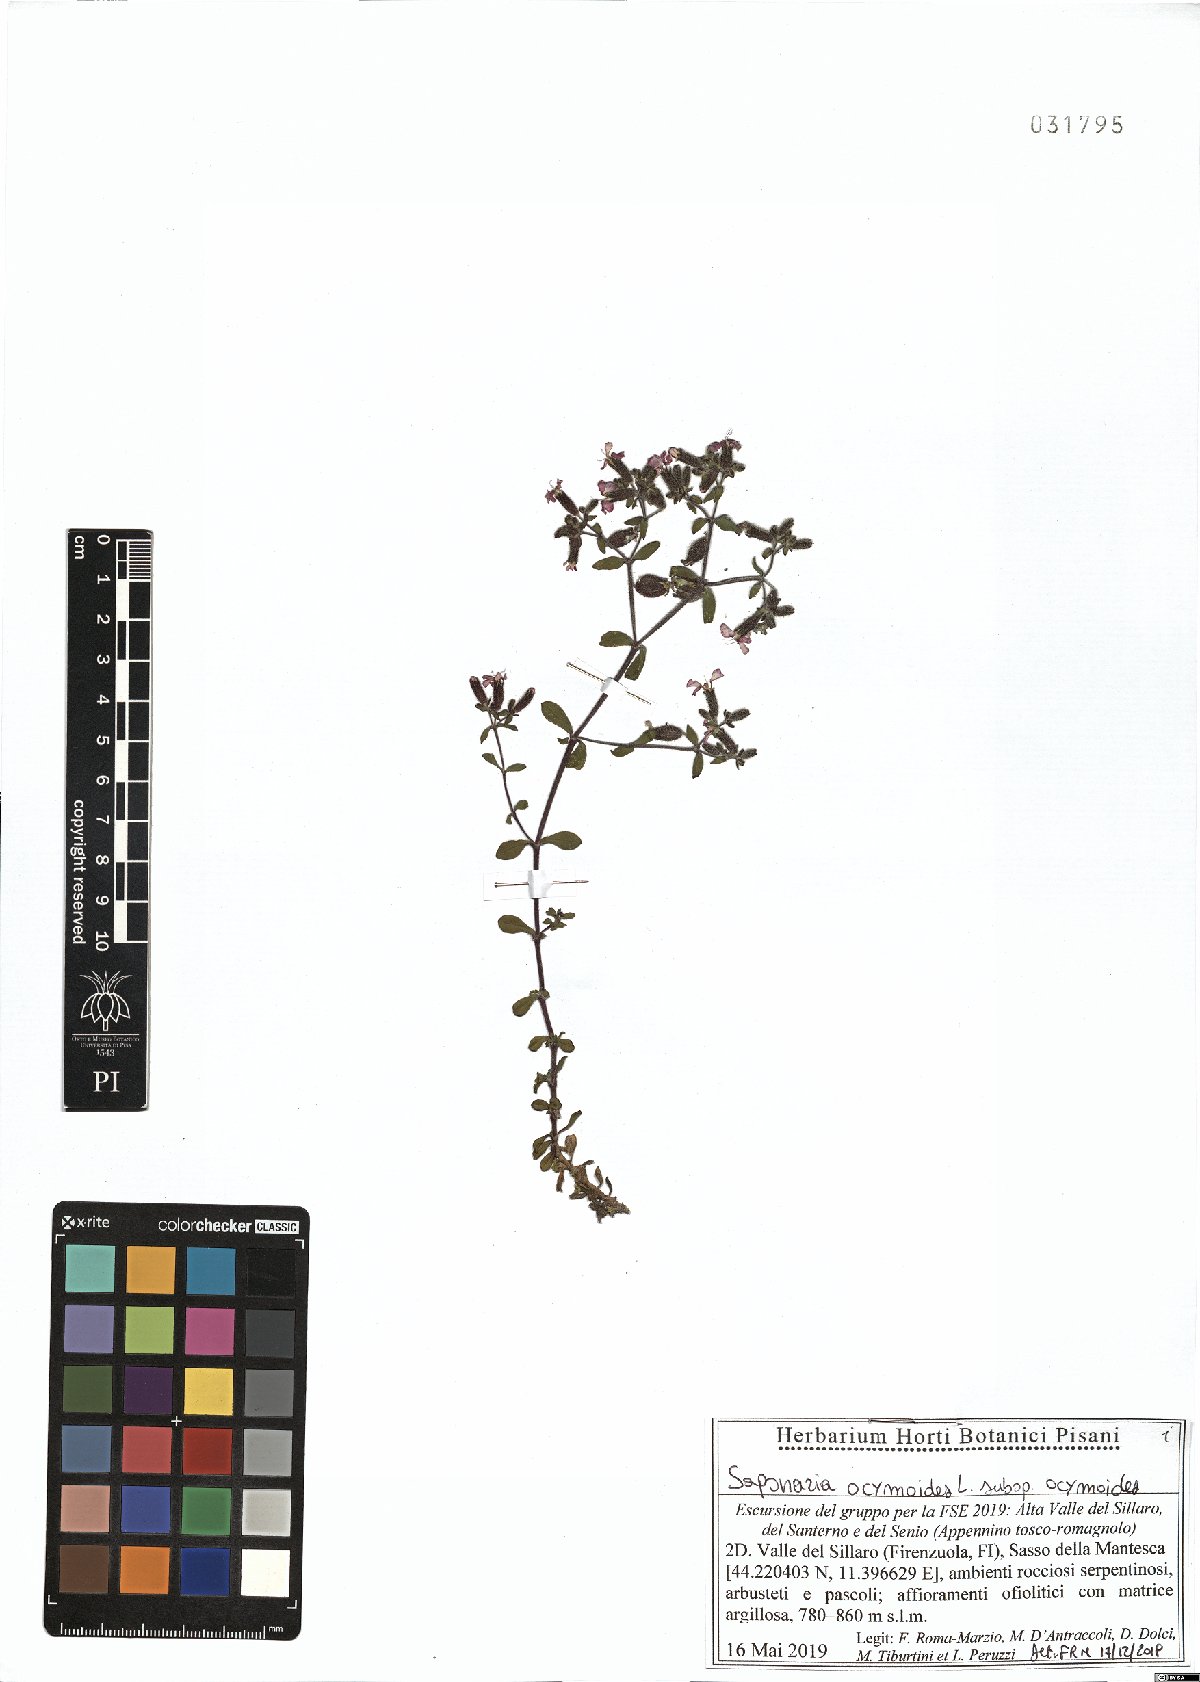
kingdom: Plantae
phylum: Tracheophyta
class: Magnoliopsida
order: Caryophyllales
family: Caryophyllaceae
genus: Saponaria
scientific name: Saponaria ocymoides
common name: Rock soapwort
